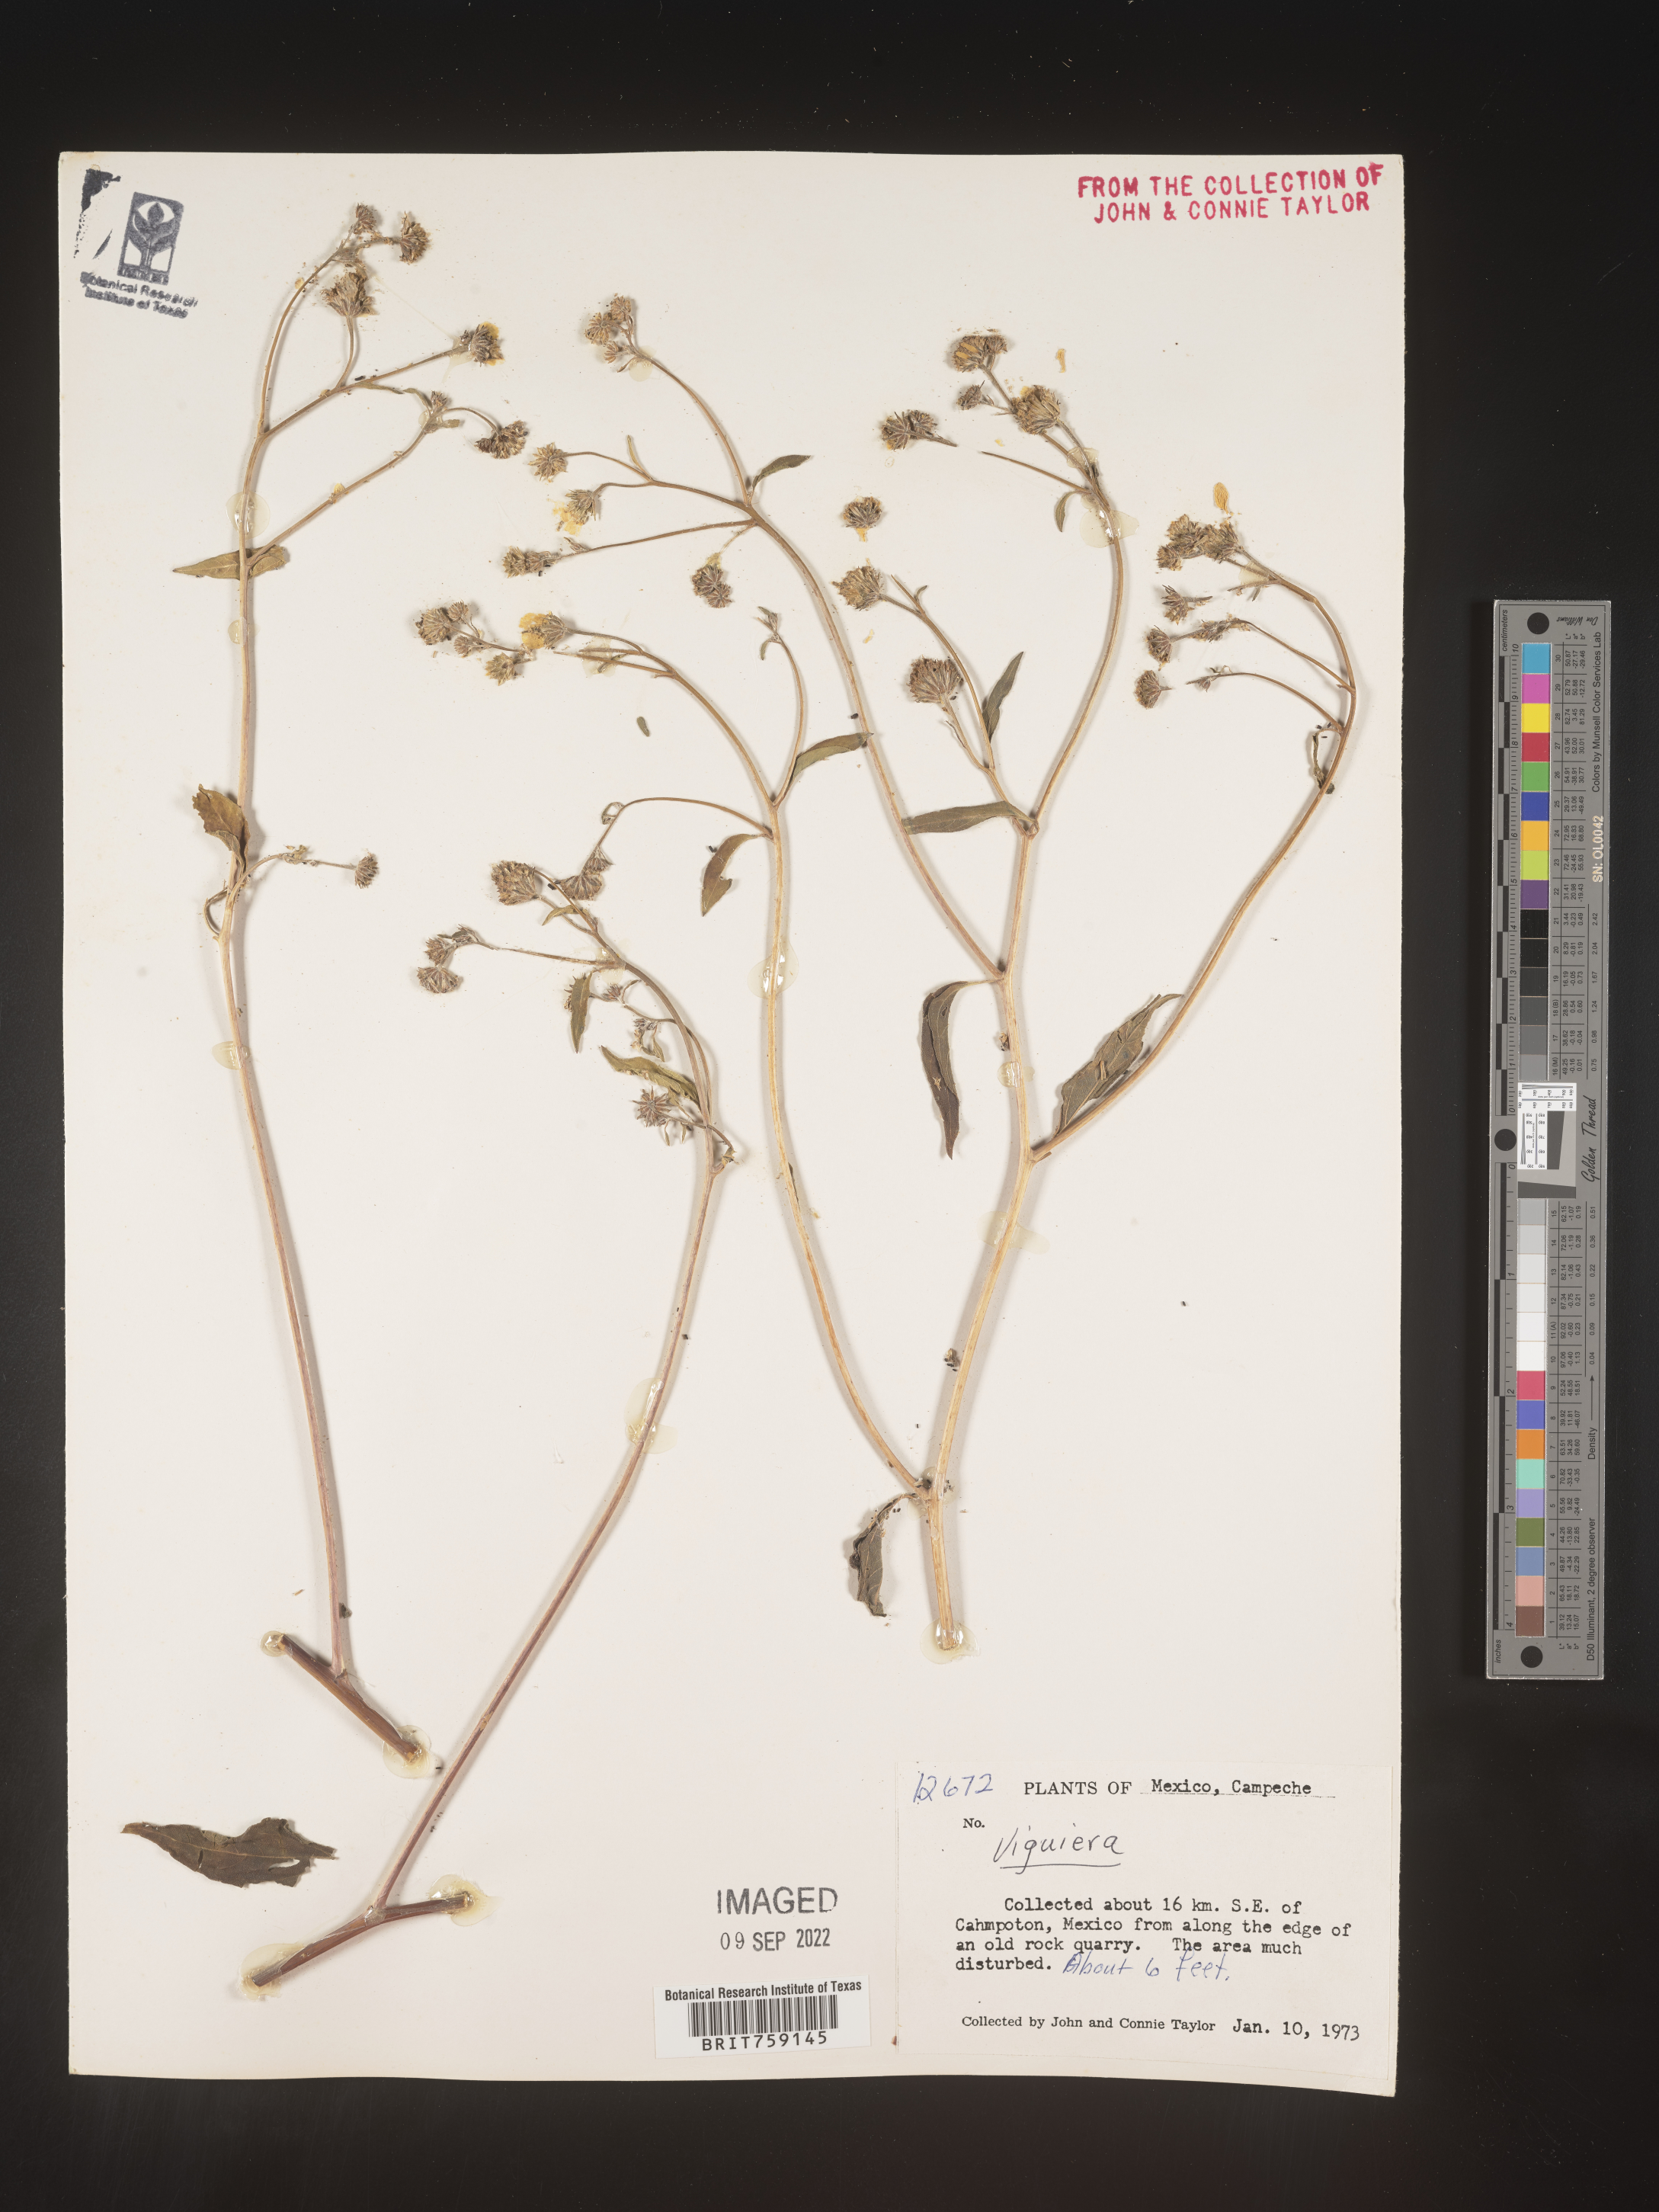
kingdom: Plantae
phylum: Tracheophyta
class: Magnoliopsida
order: Asterales
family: Asteraceae
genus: Viguiera
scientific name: Viguiera
